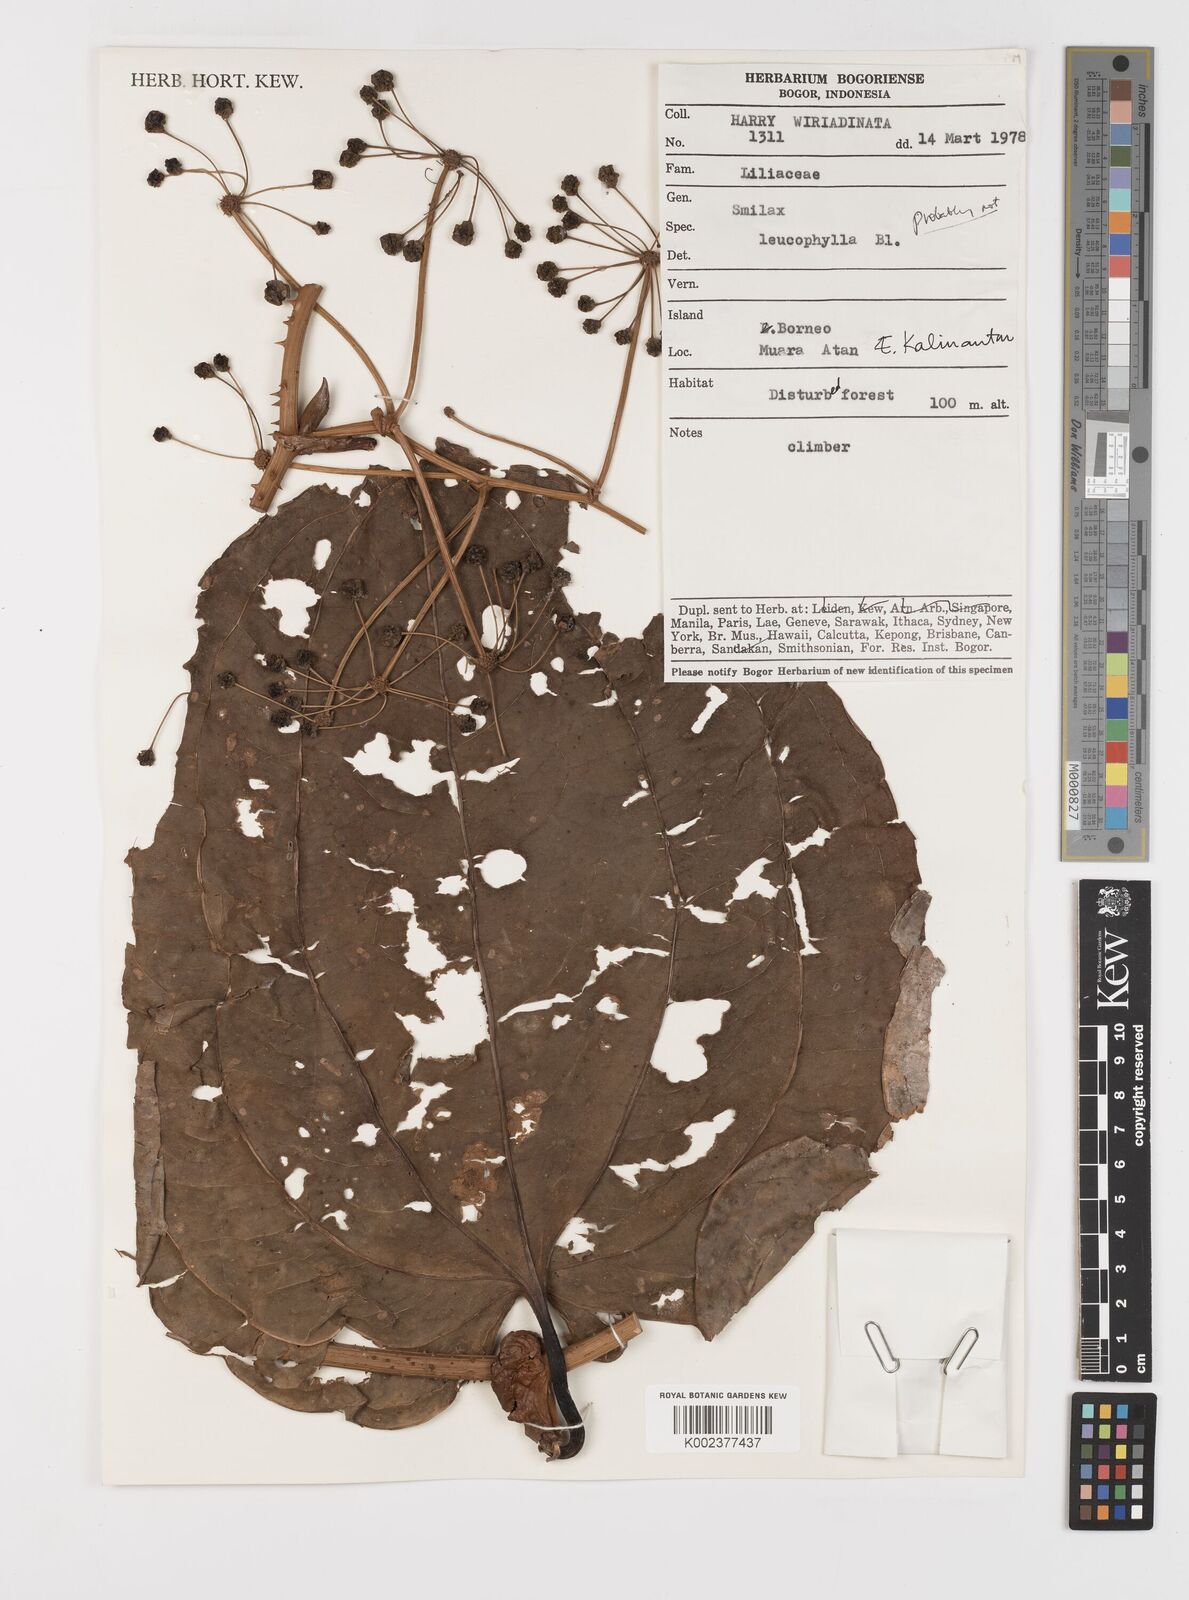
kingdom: Plantae
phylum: Tracheophyta
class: Liliopsida
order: Liliales
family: Smilacaceae
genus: Smilax
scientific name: Smilax borneensis
